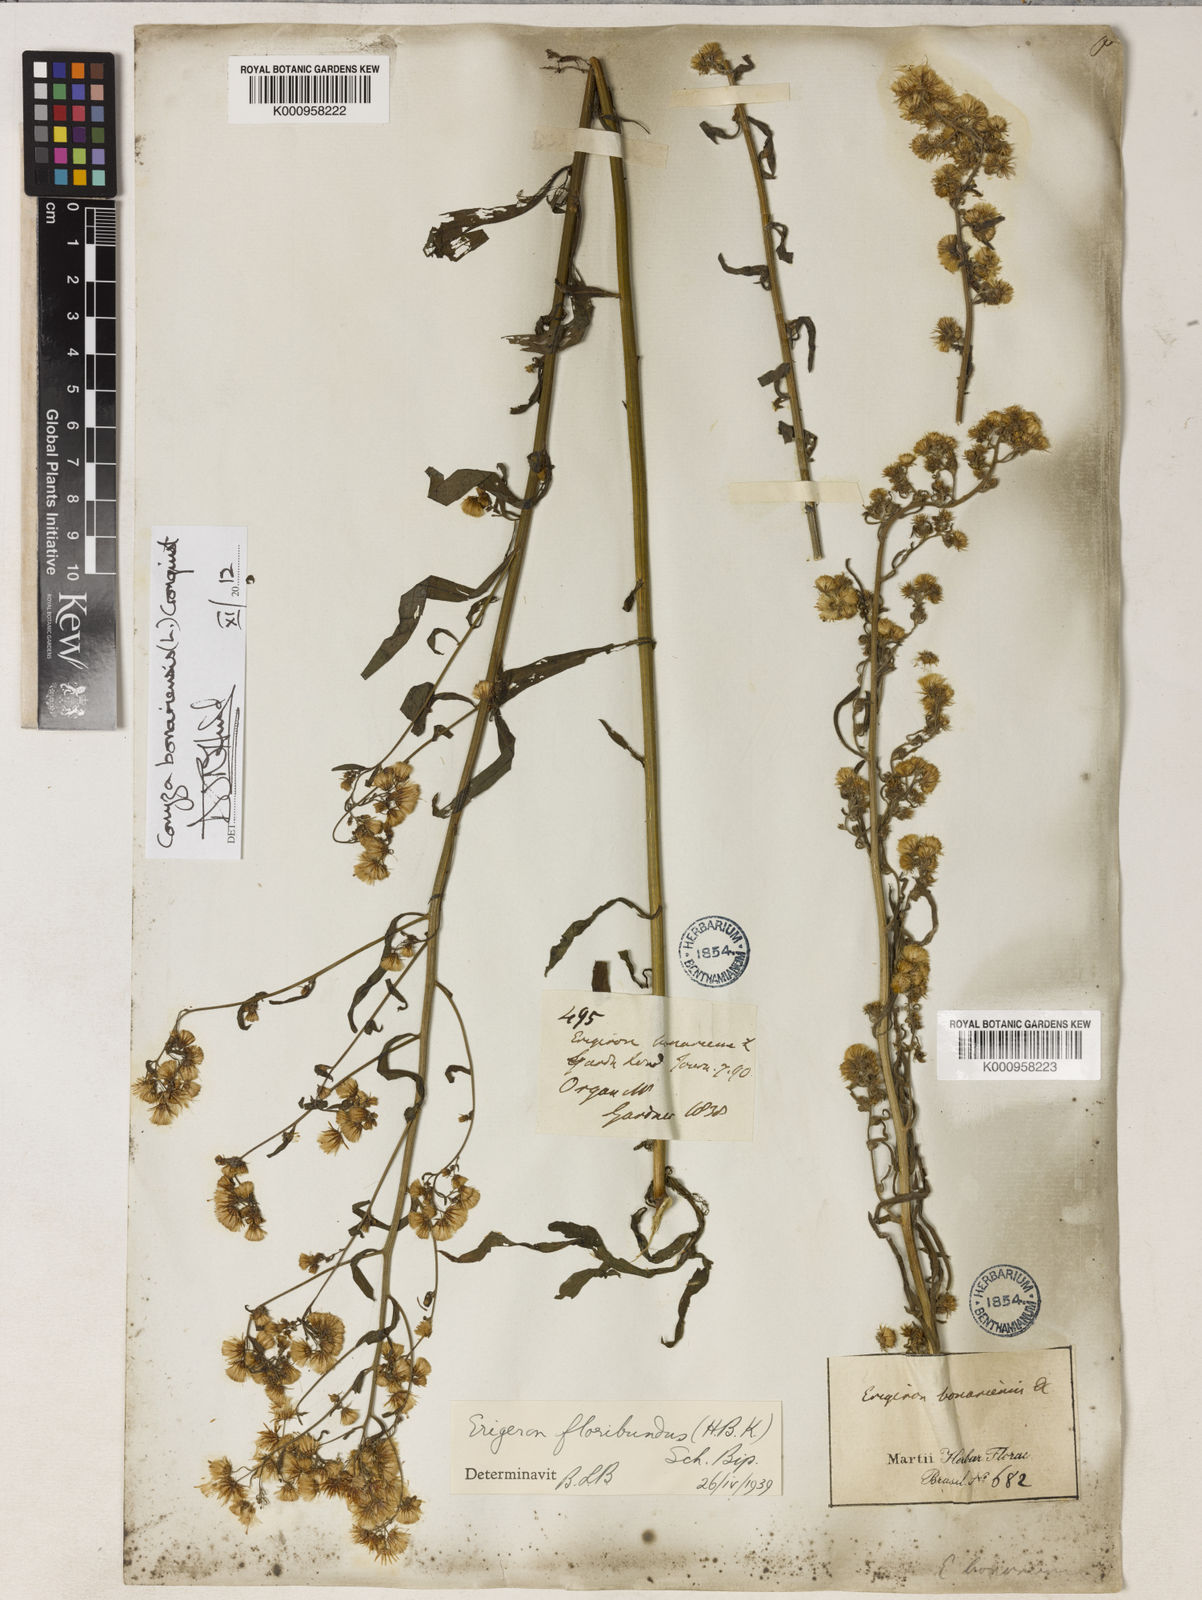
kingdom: Plantae
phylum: Tracheophyta
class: Magnoliopsida
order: Asterales
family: Asteraceae
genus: Erigeron
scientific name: Erigeron bonariensis
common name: Argentine fleabane
